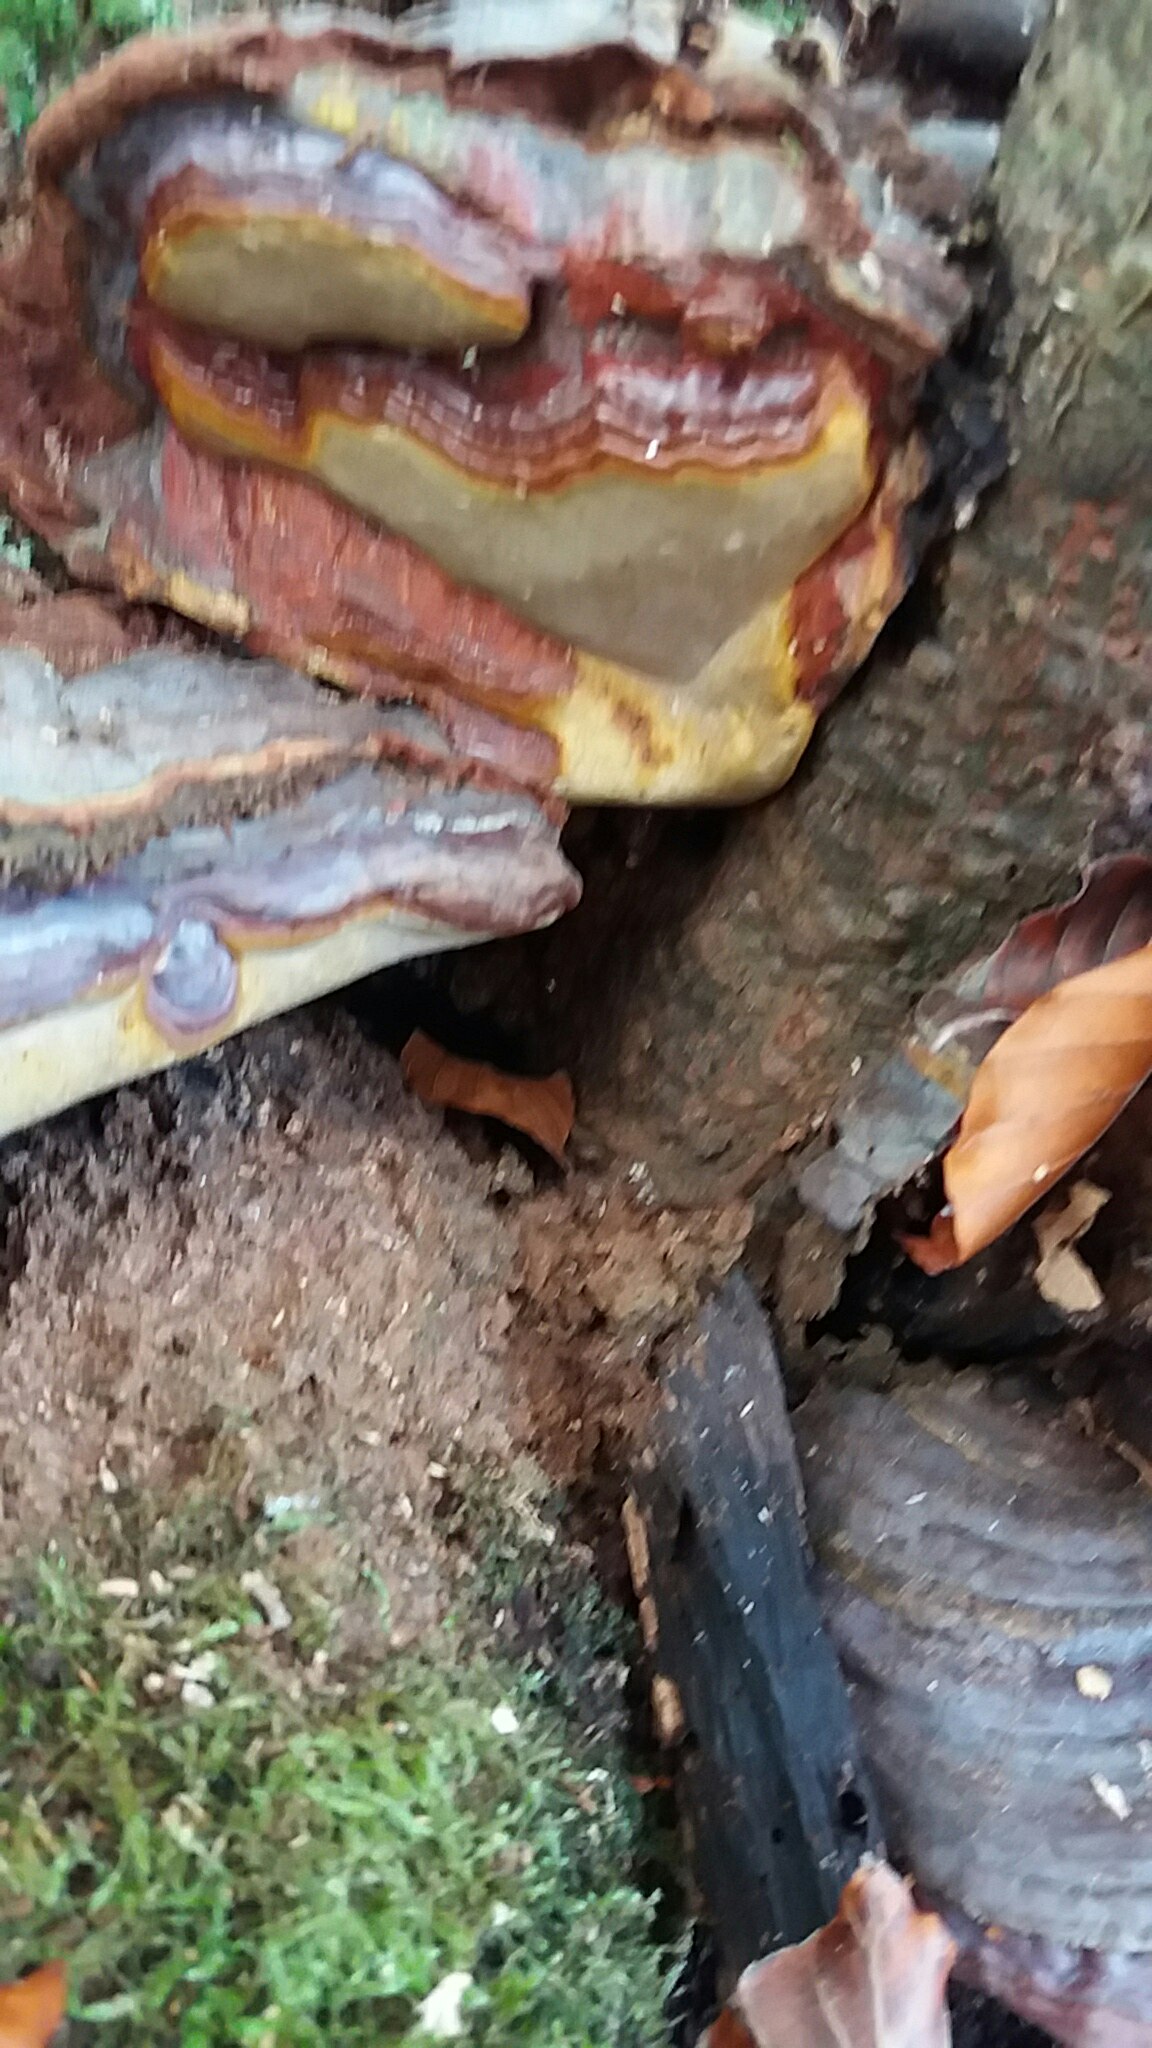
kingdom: Fungi
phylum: Basidiomycota
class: Agaricomycetes
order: Polyporales
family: Polyporaceae
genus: Ganoderma
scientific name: Ganoderma pfeifferi
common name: kobberrød lakporesvamp
